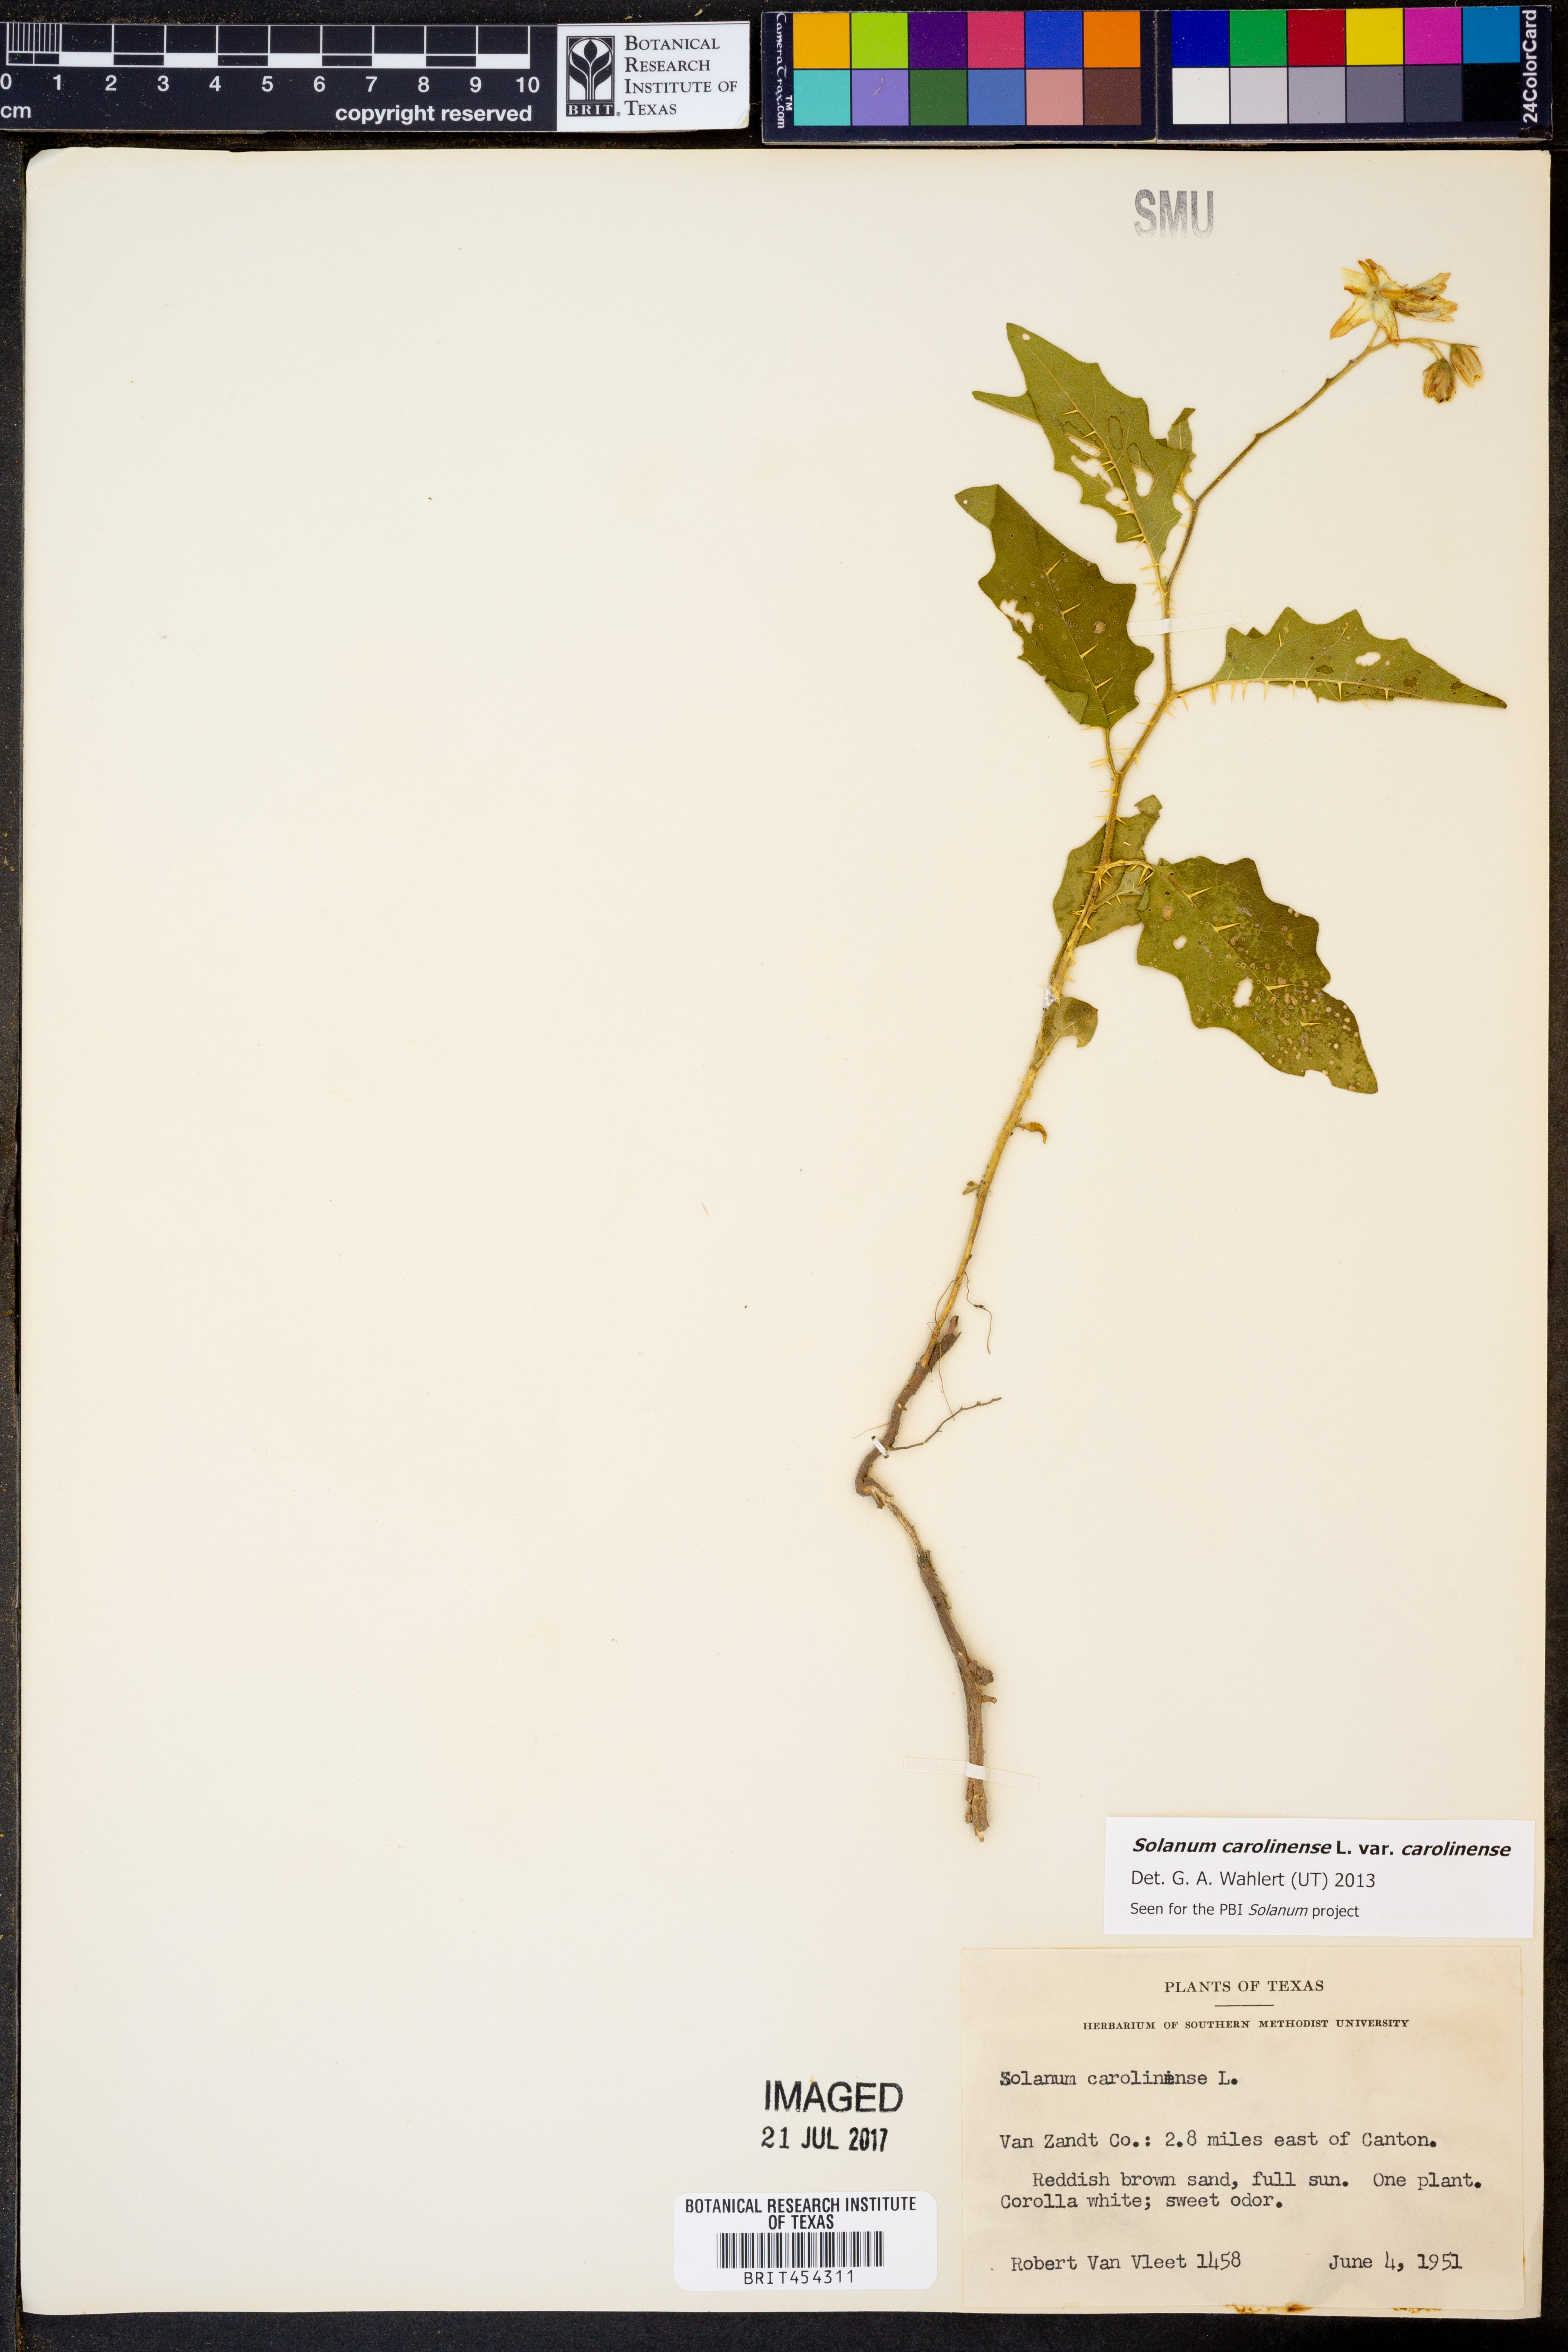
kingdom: Plantae
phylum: Tracheophyta
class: Magnoliopsida
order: Solanales
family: Solanaceae
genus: Solanum
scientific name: Solanum carolinense
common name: Horse-nettle
